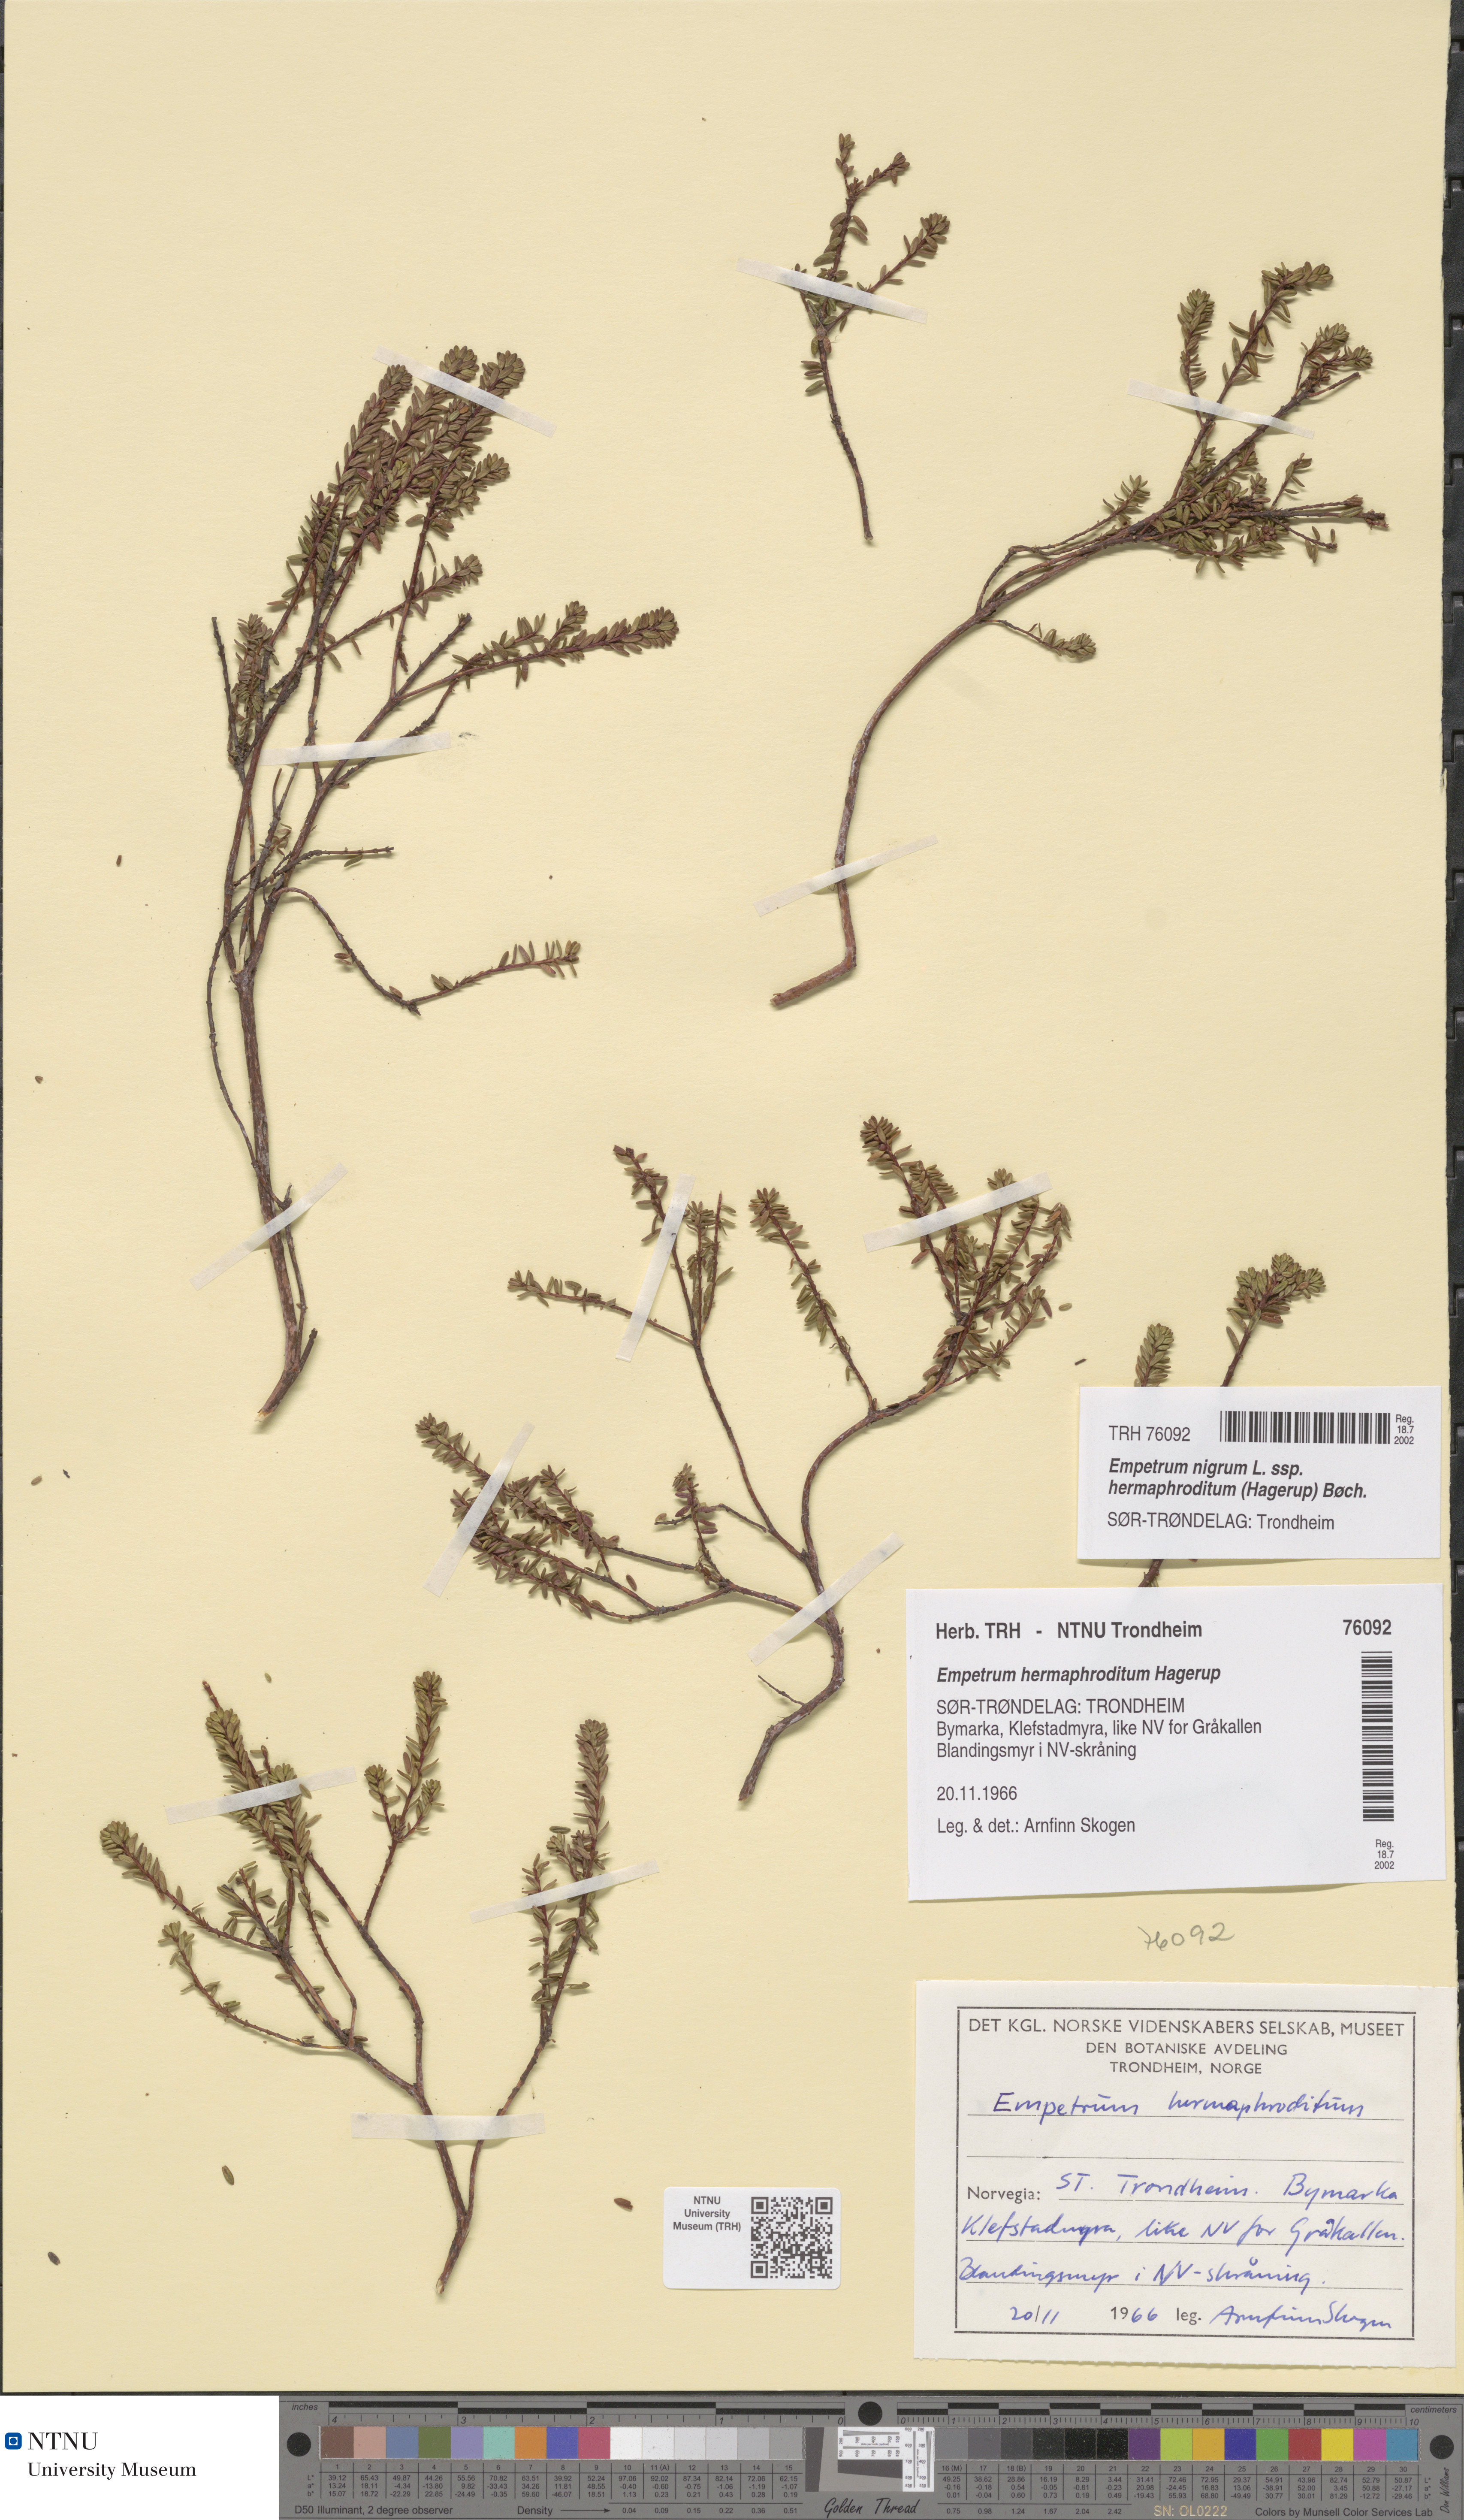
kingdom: Plantae
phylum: Tracheophyta
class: Magnoliopsida
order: Ericales
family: Ericaceae
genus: Empetrum
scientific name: Empetrum hermaphroditum
